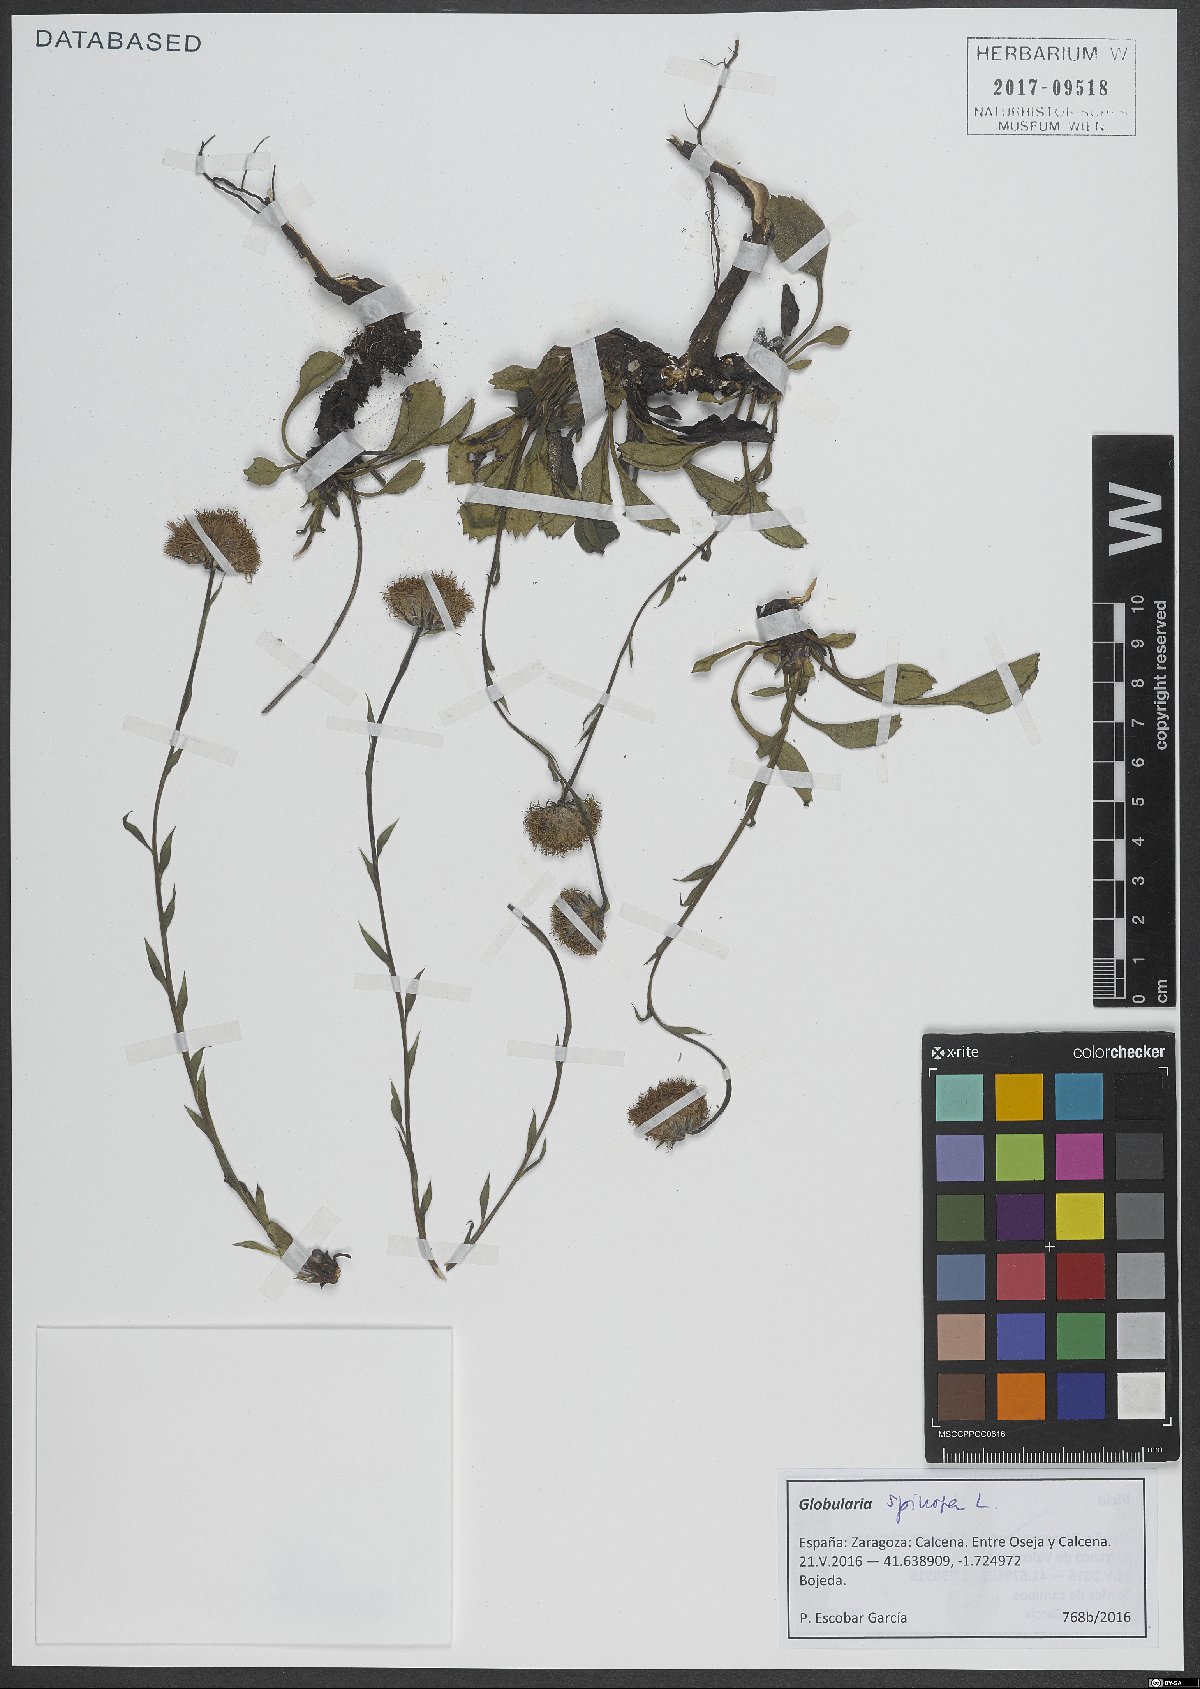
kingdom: Plantae
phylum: Tracheophyta
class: Magnoliopsida
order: Lamiales
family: Plantaginaceae
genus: Globularia
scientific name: Globularia spinosa
